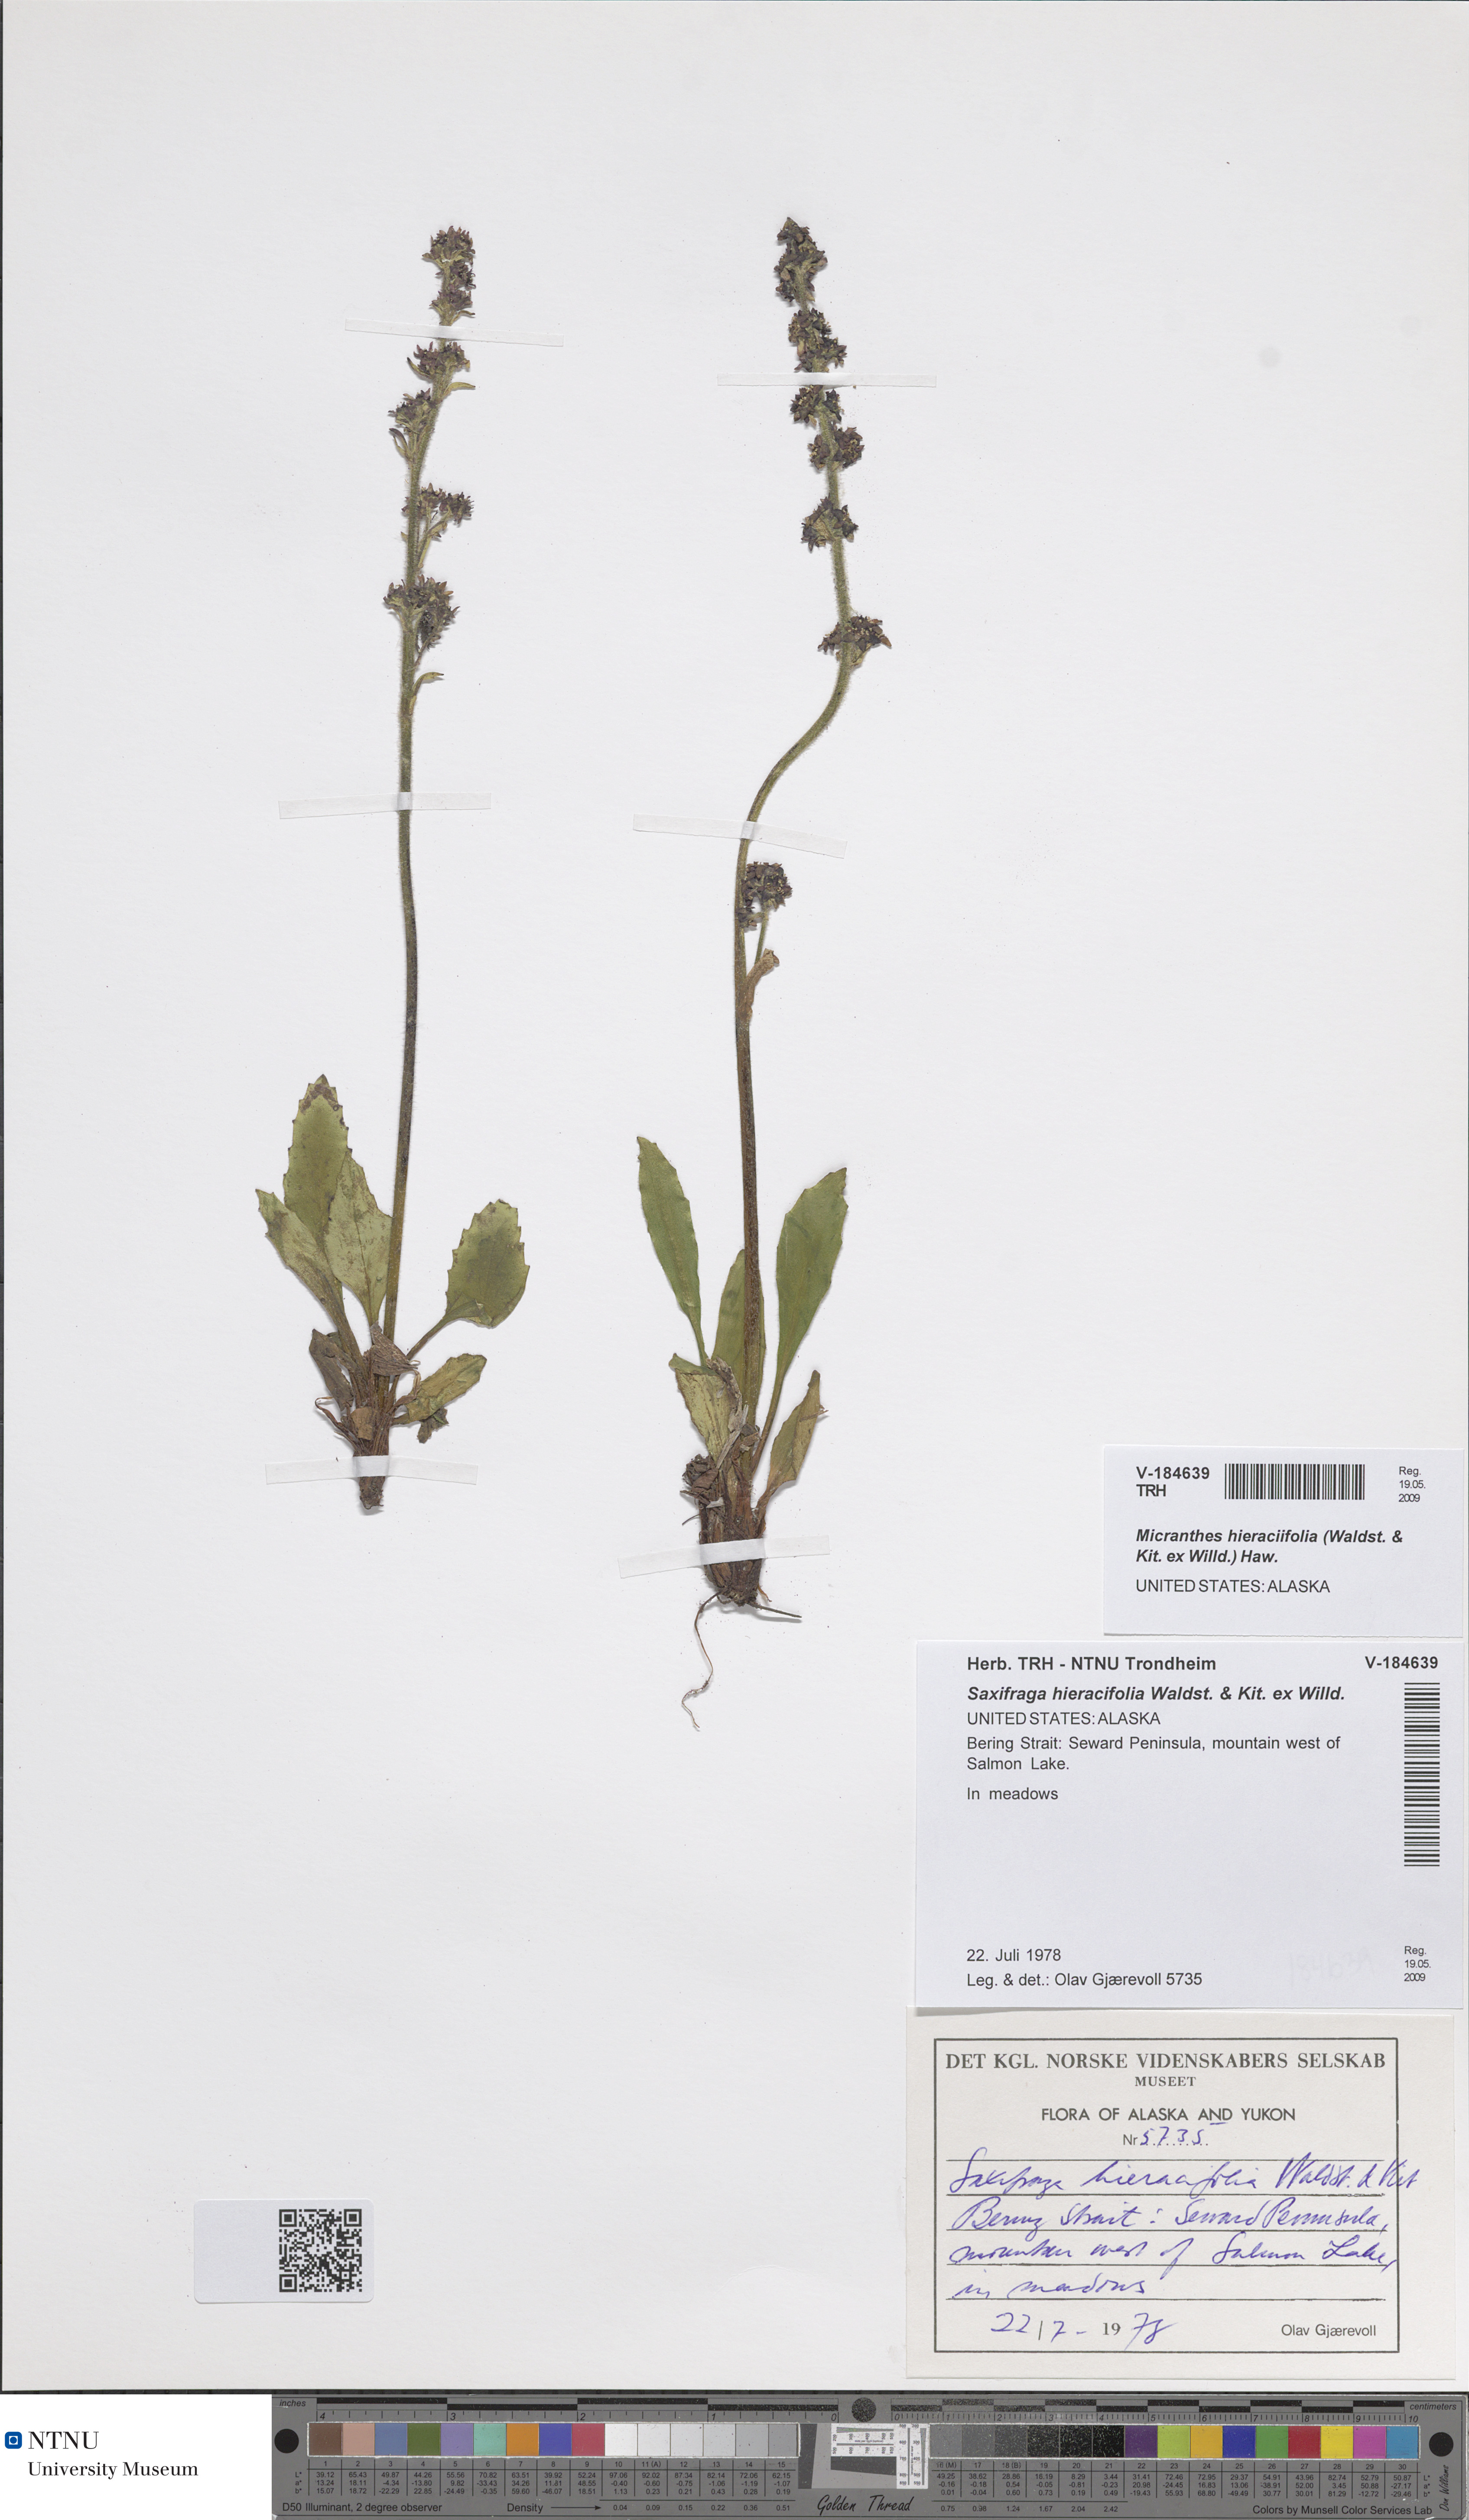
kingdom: Plantae
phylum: Tracheophyta
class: Magnoliopsida
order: Saxifragales
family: Saxifragaceae
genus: Micranthes
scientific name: Micranthes hieraciifolia
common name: Hawkweed-leaved saxifrage
